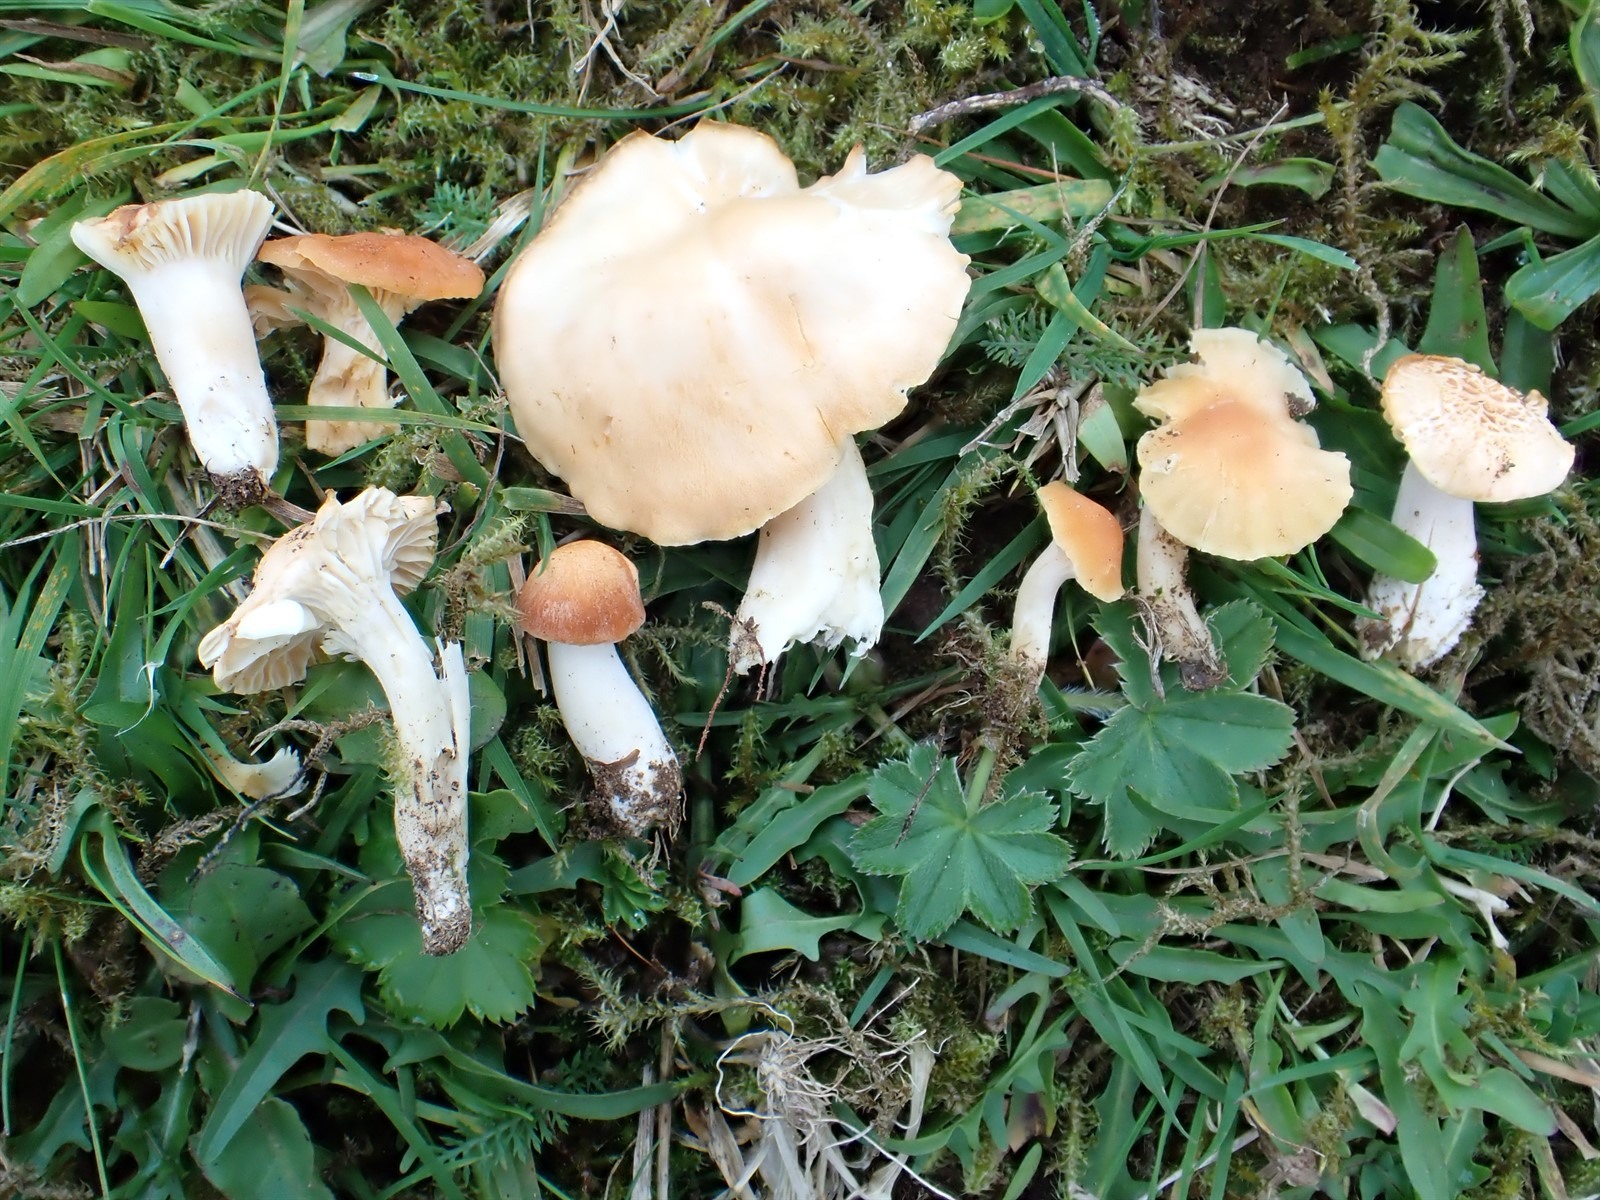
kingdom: Fungi
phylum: Basidiomycota
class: Agaricomycetes
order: Agaricales
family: Hygrophoraceae
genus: Cuphophyllus
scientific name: Cuphophyllus pratensis
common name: Meadow waxcap
